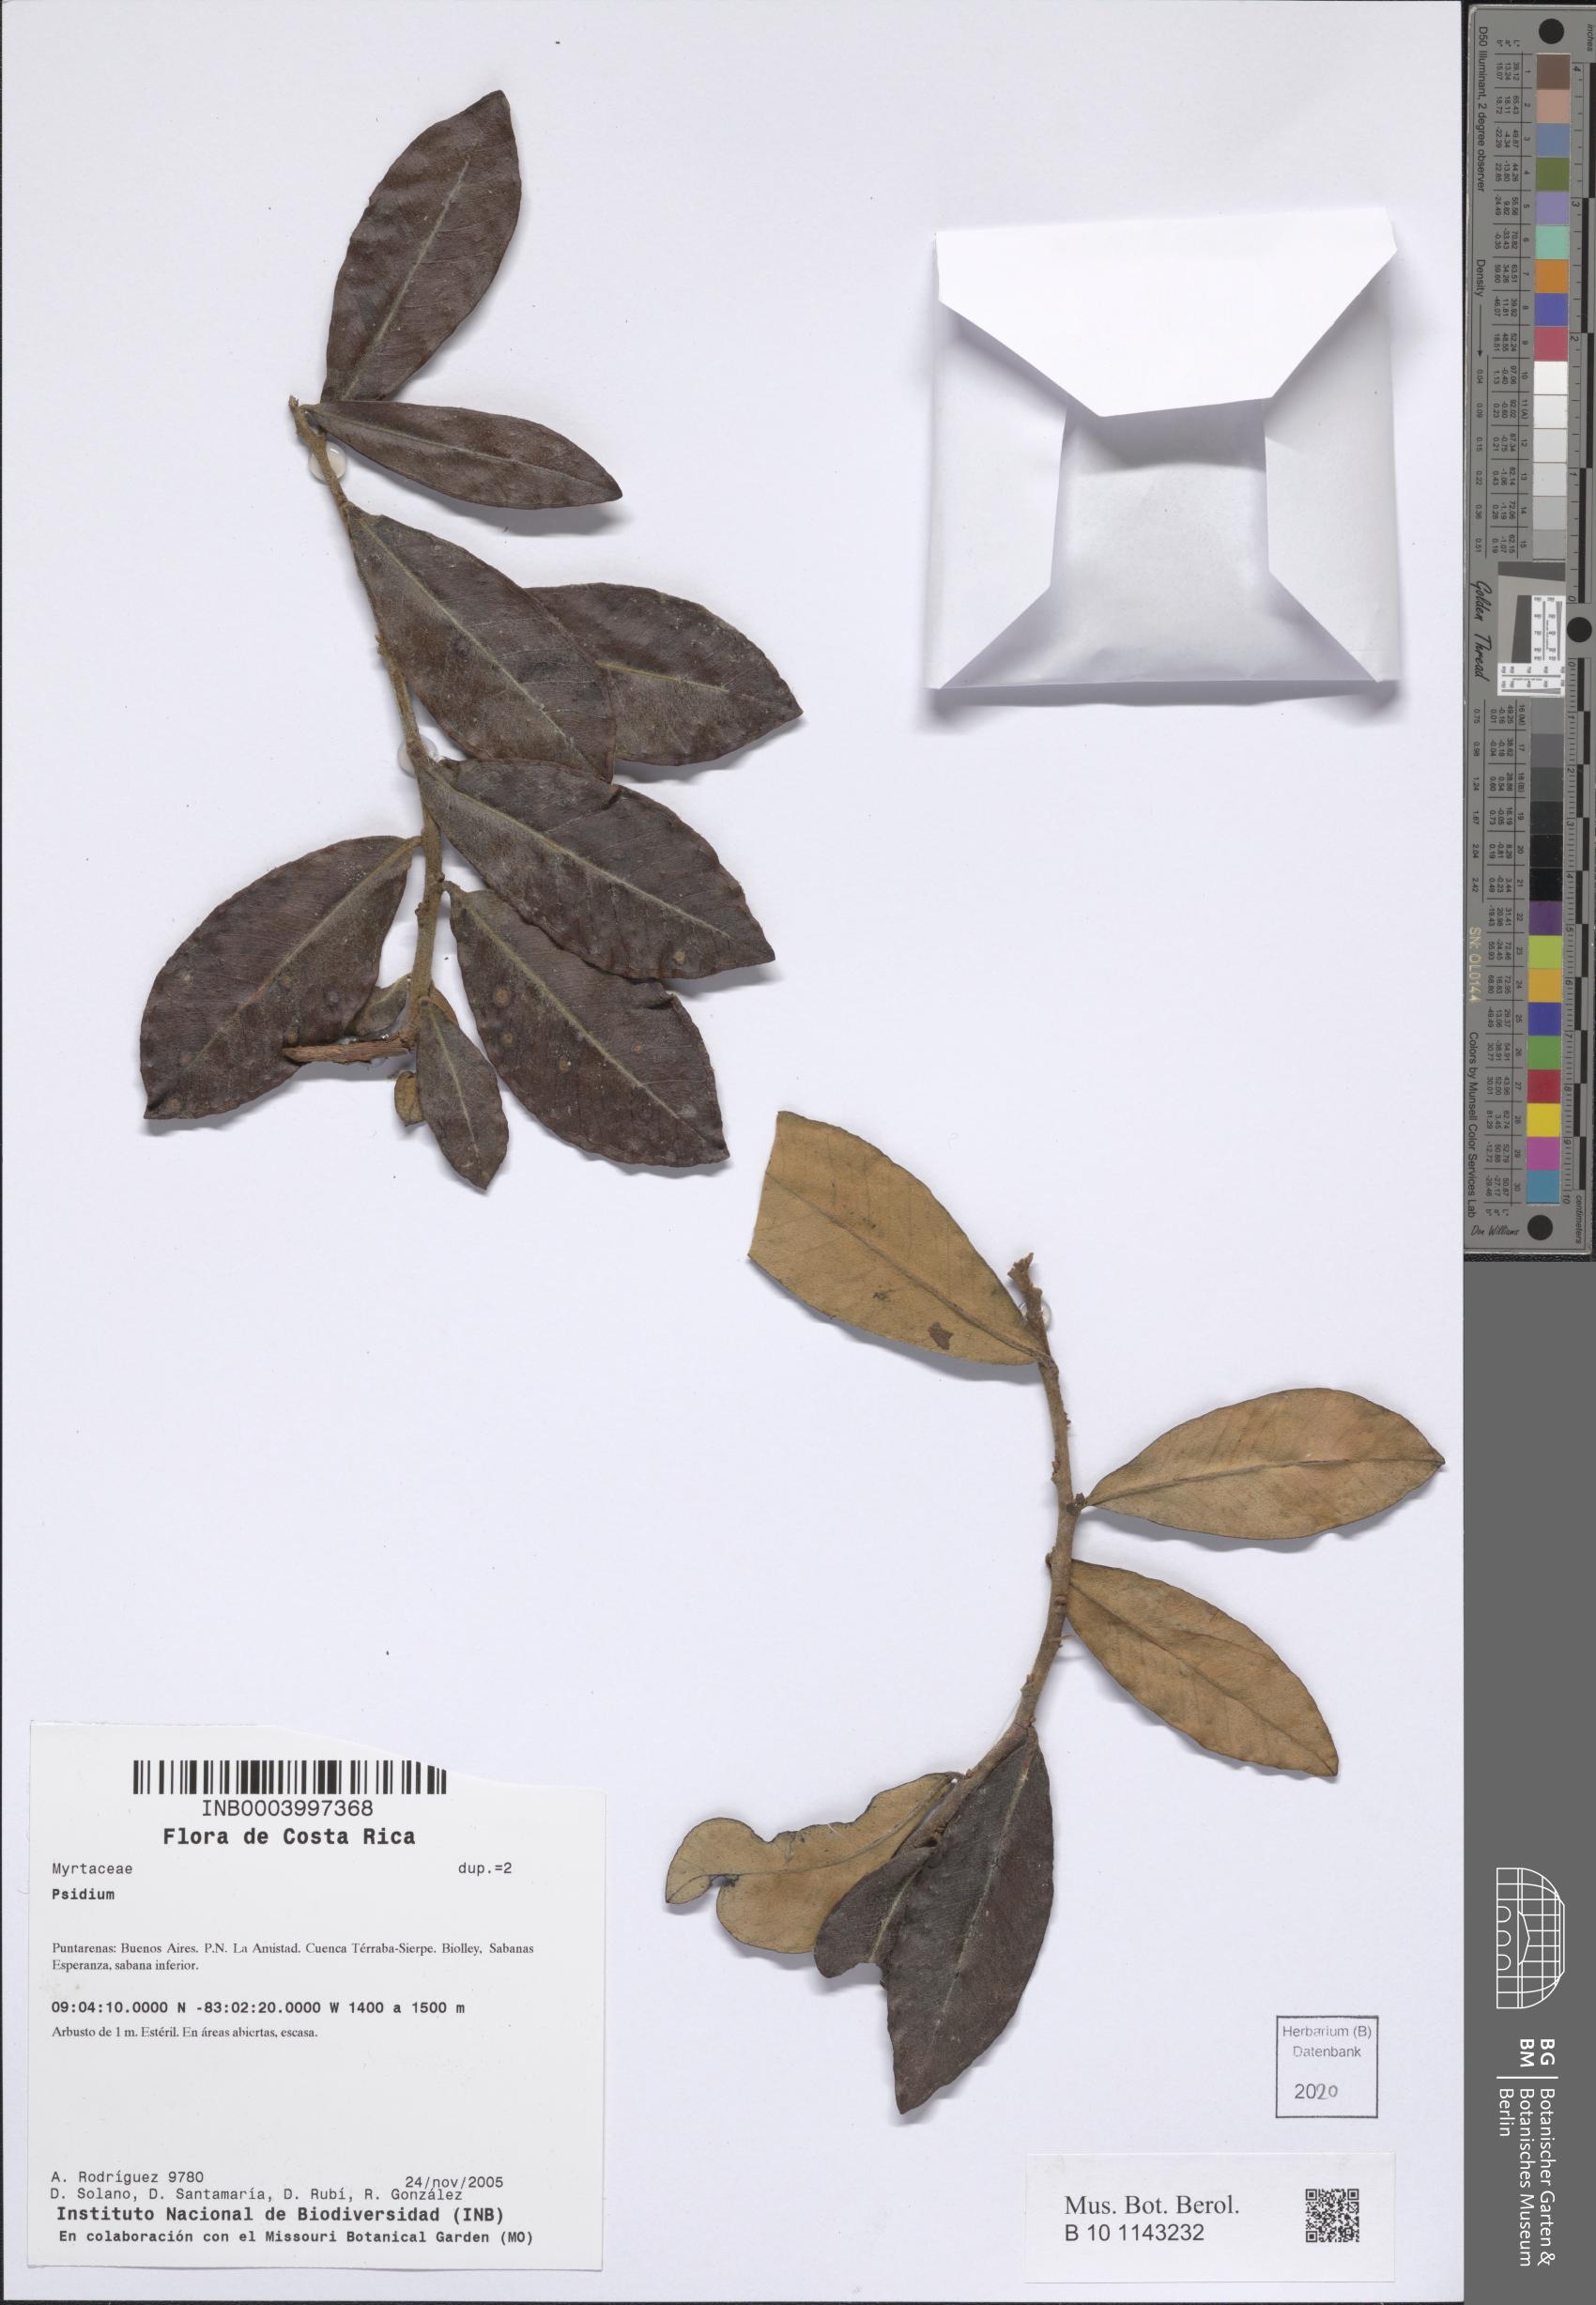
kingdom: Plantae
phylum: Tracheophyta
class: Magnoliopsida
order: Myrtales
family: Myrtaceae
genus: Psidium
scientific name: Psidium
